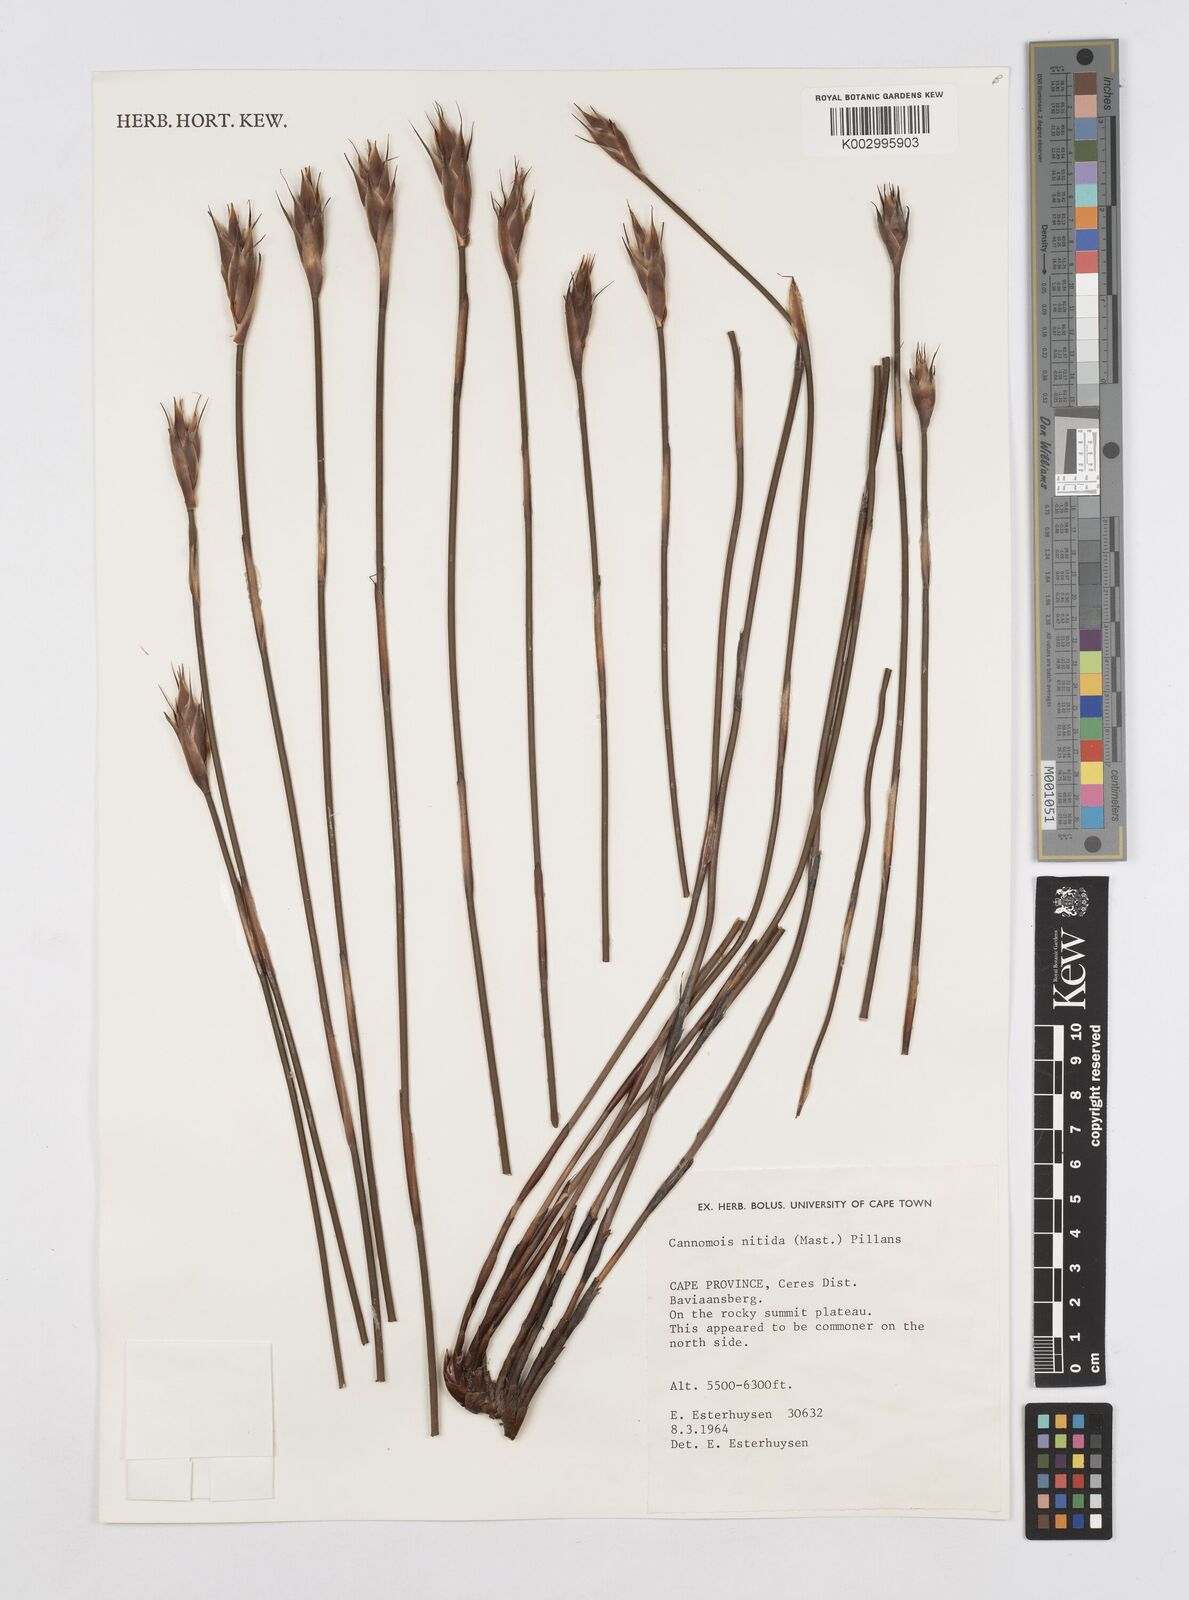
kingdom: Plantae
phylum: Tracheophyta
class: Liliopsida
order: Poales
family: Restionaceae
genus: Cannomois
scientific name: Cannomois nitida
